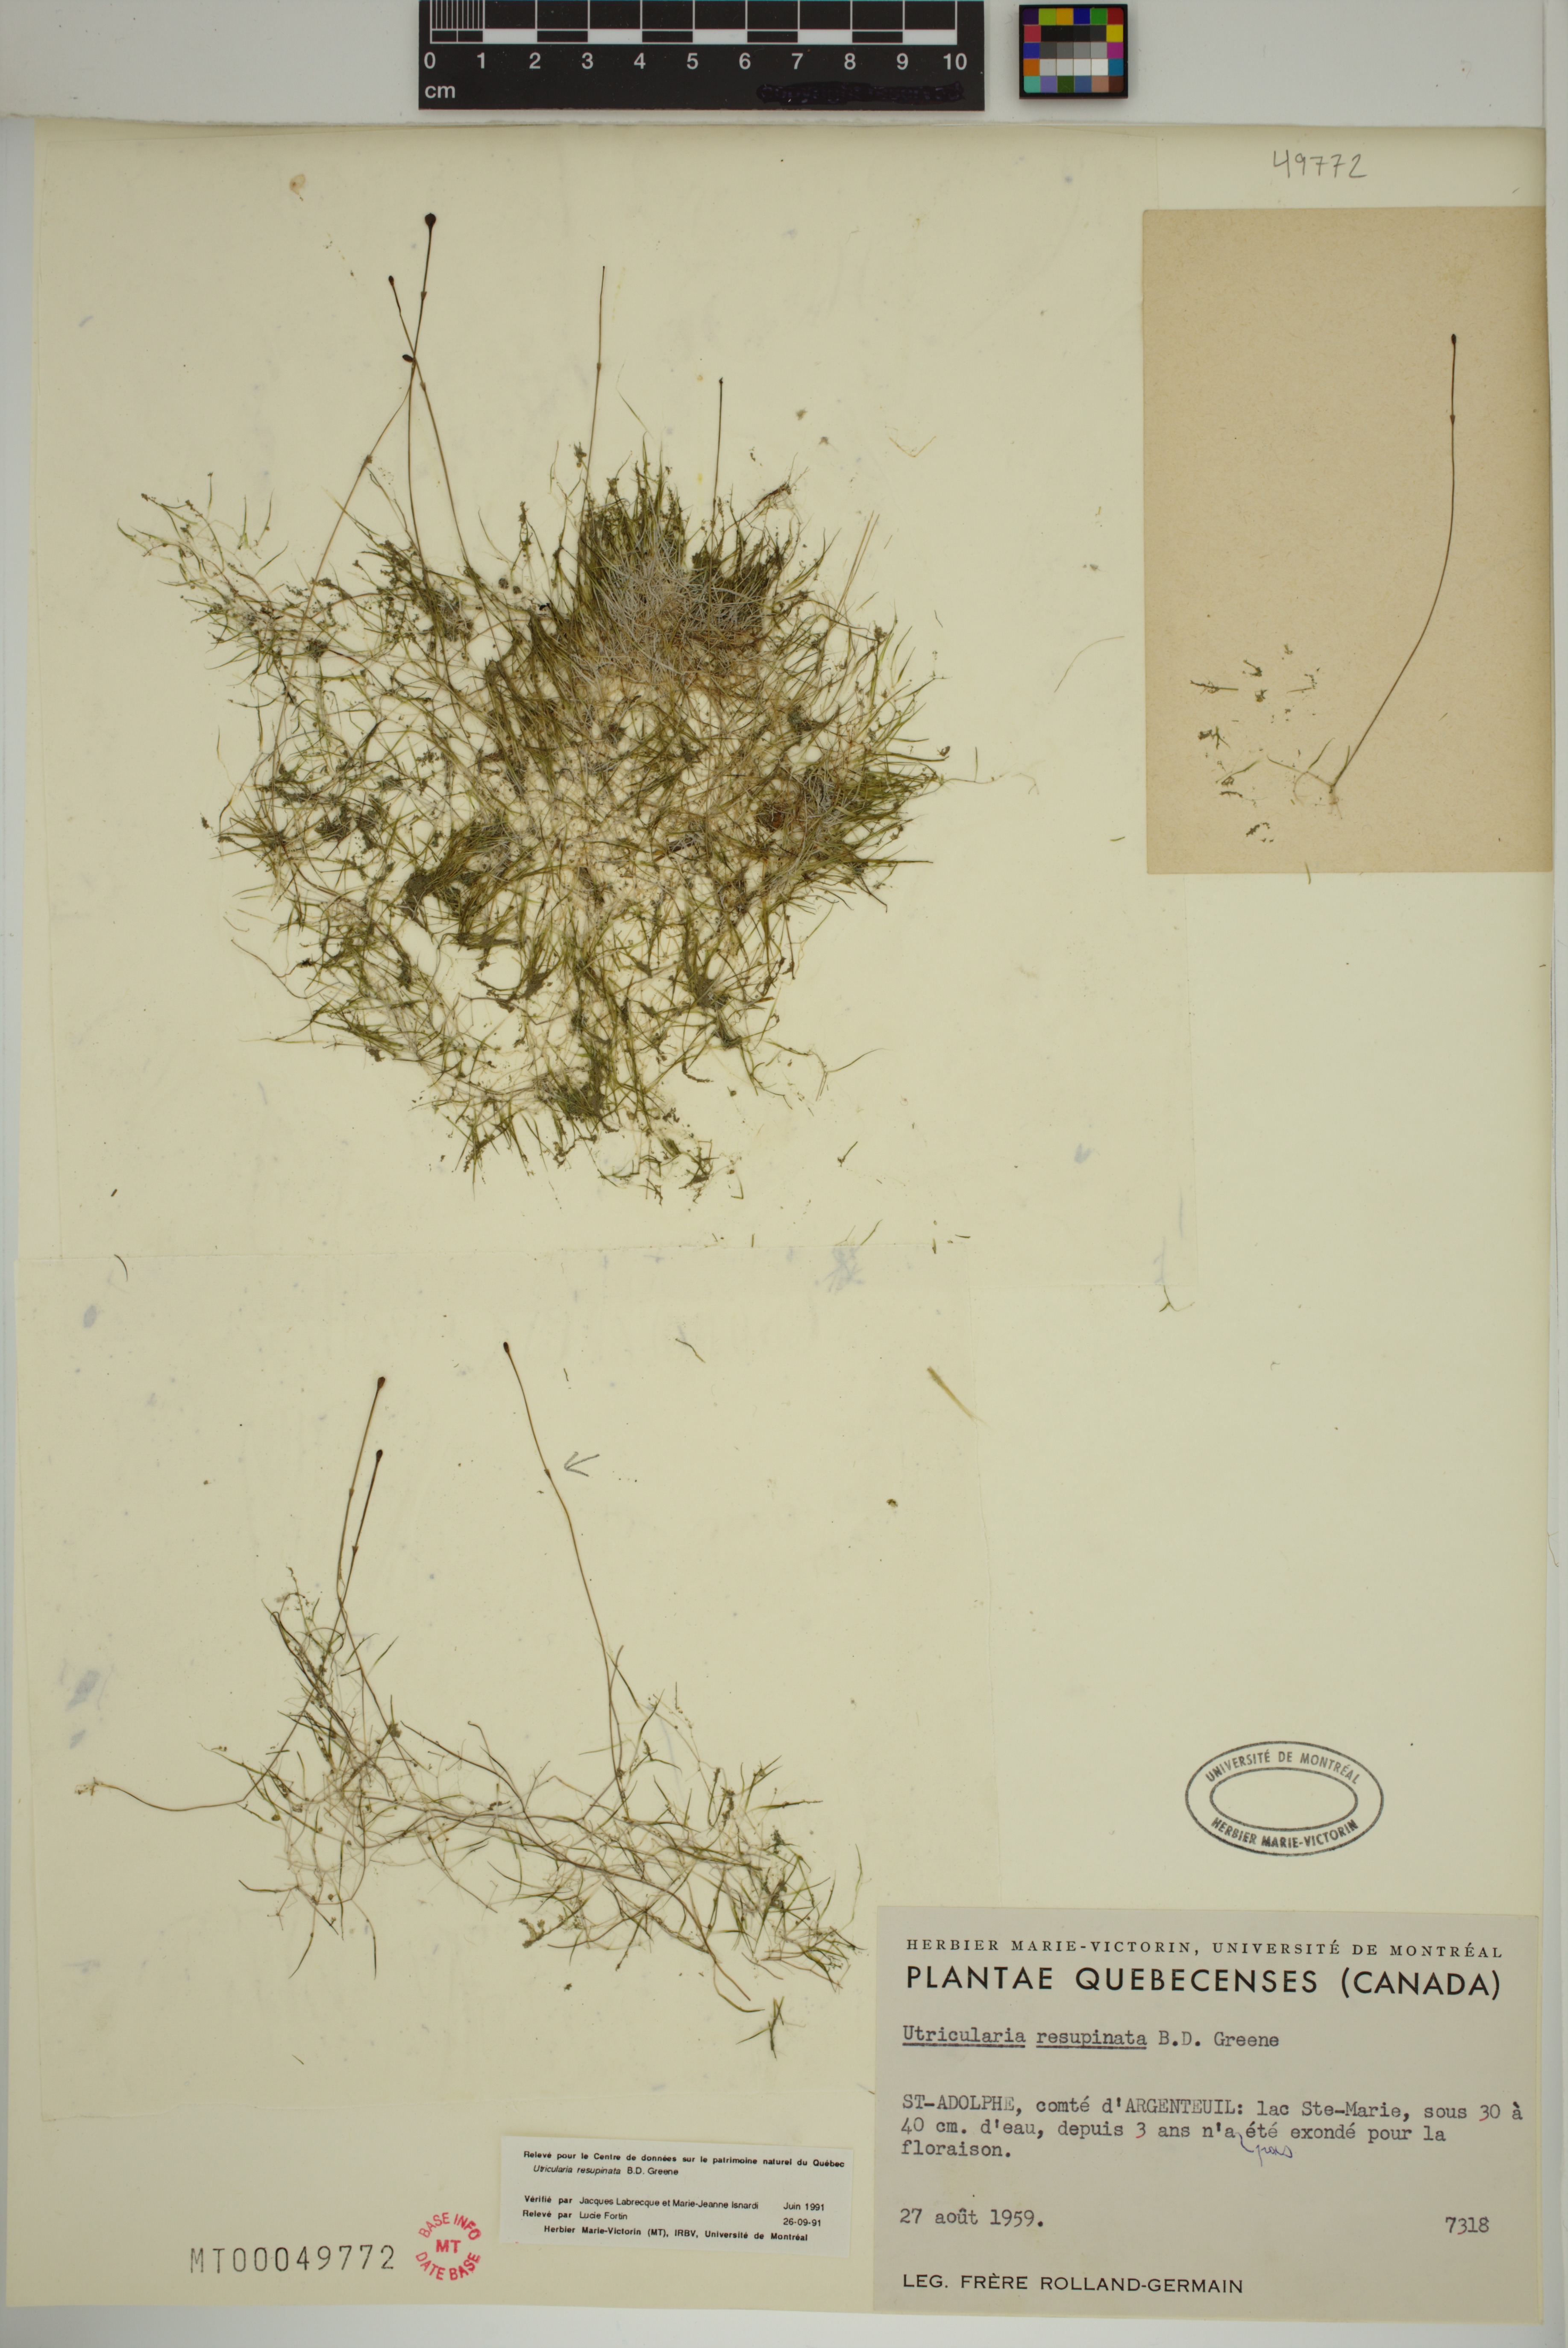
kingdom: Plantae
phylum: Tracheophyta
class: Magnoliopsida
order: Lamiales
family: Lentibulariaceae
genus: Utricularia
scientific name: Utricularia resupinata
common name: Northeastern bladderwort
